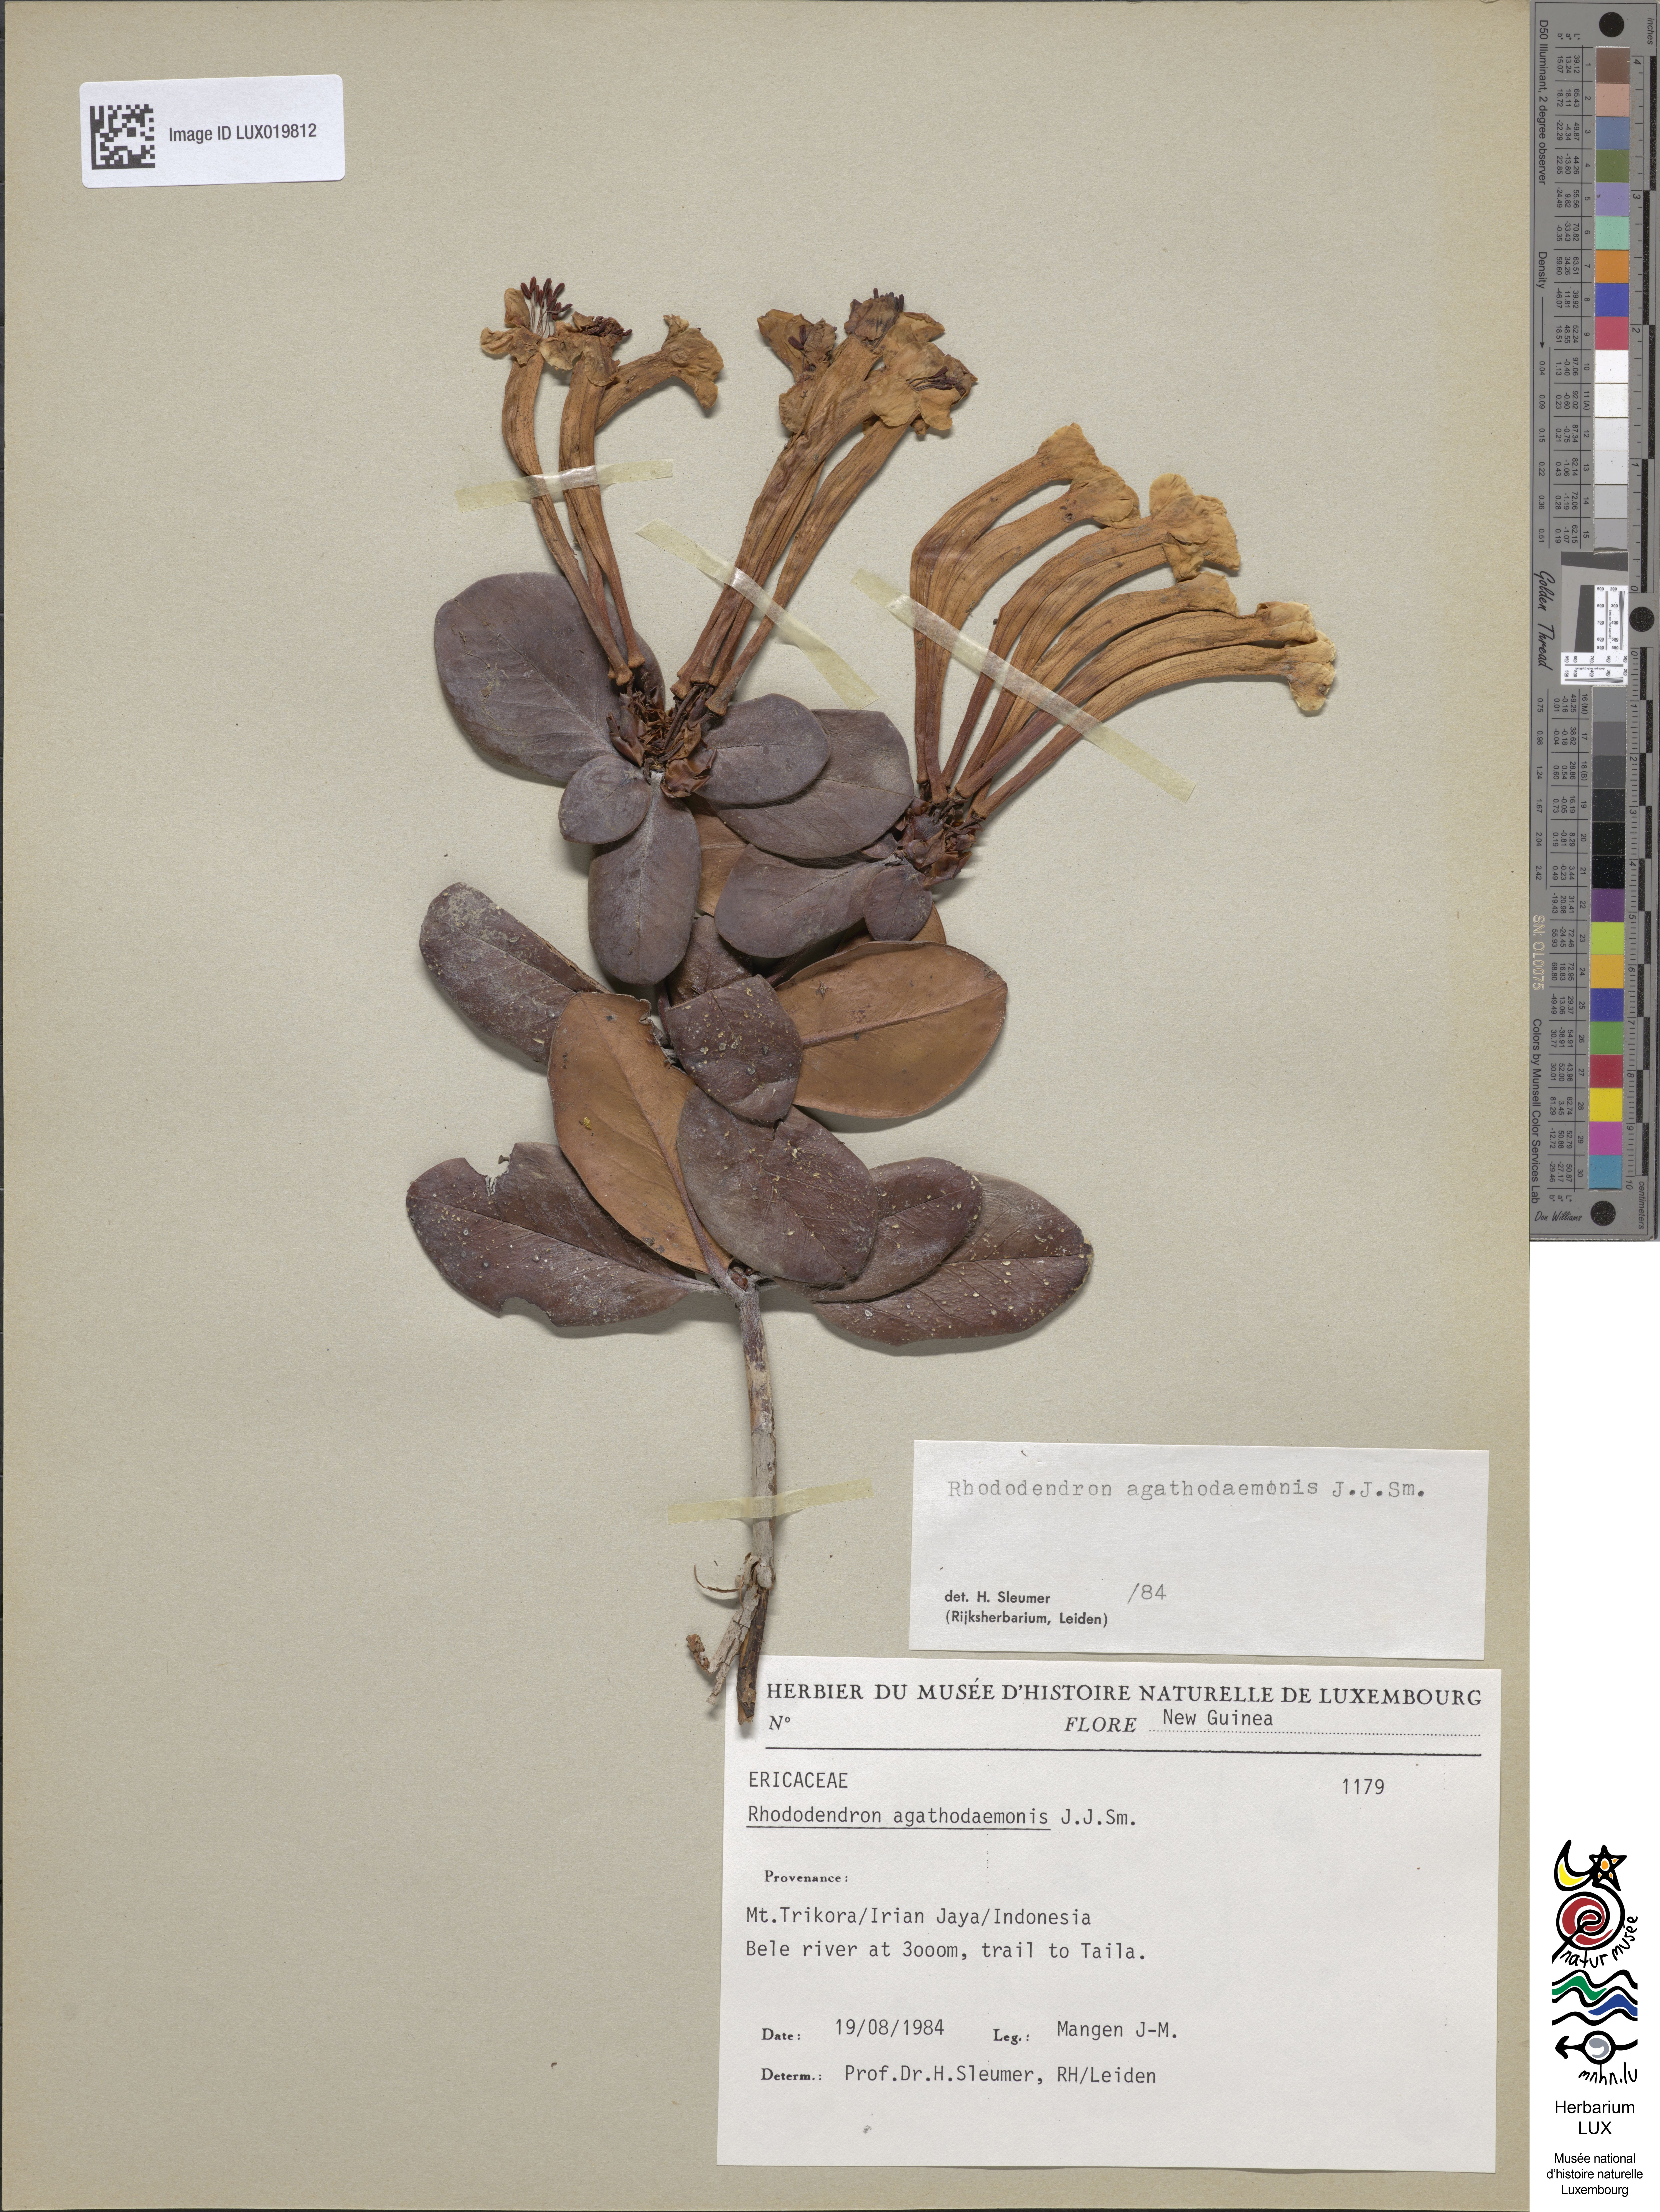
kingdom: Plantae
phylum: Tracheophyta
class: Magnoliopsida
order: Ericales
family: Ericaceae
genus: Rhododendron
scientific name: Rhododendron agathodaemonis
